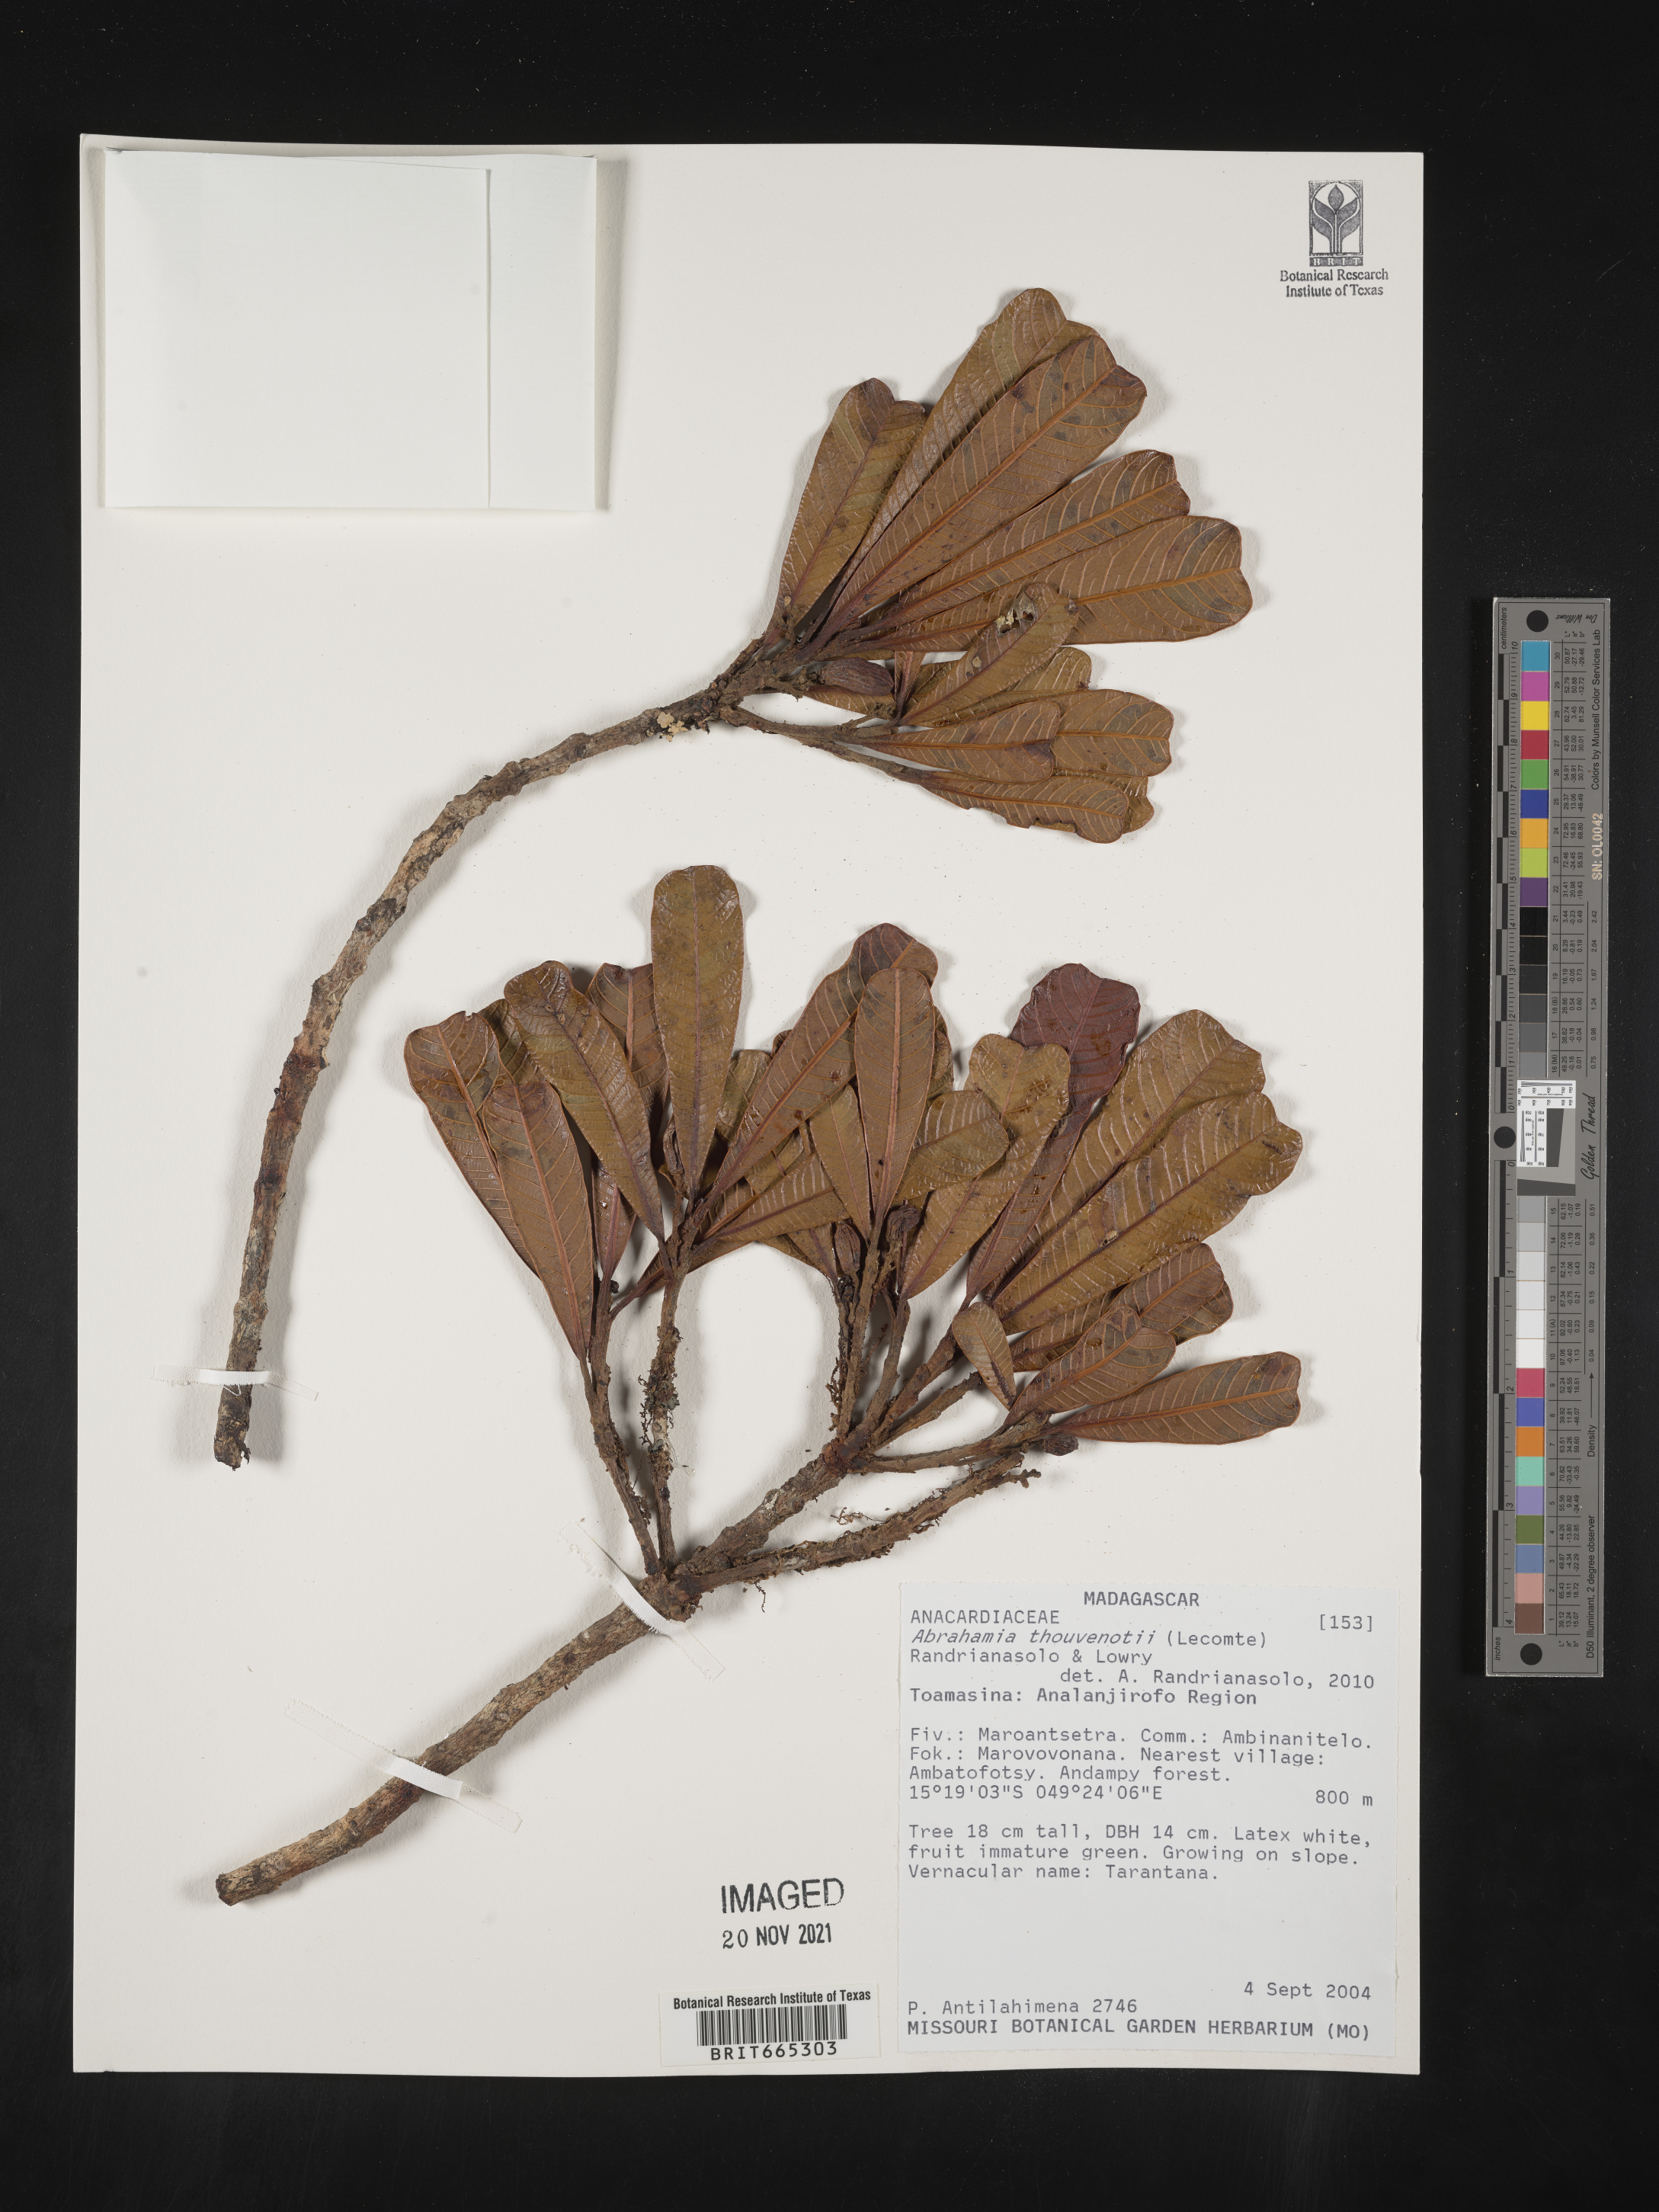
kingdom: Plantae
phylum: Tracheophyta
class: Magnoliopsida
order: Sapindales
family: Anacardiaceae
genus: Abrahamia
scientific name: Abrahamia
